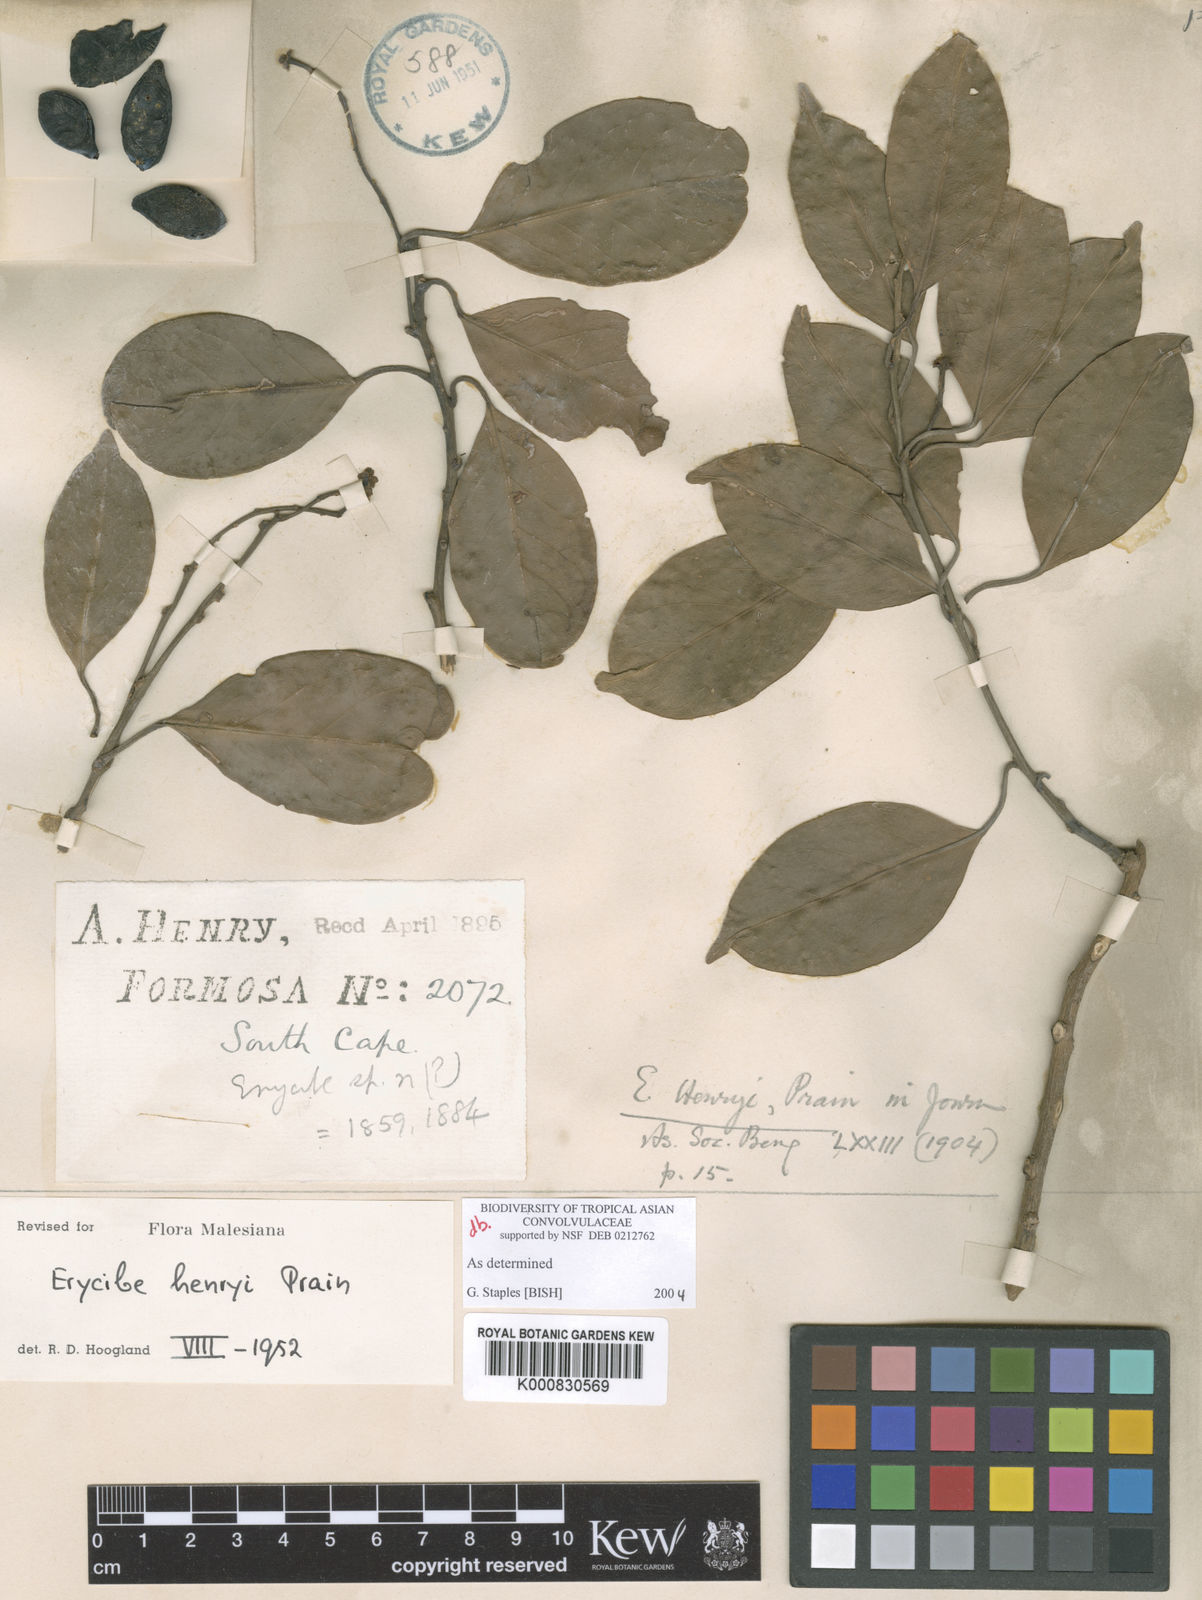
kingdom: Plantae
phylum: Tracheophyta
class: Magnoliopsida
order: Solanales
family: Convolvulaceae
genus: Erycibe
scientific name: Erycibe henryi
